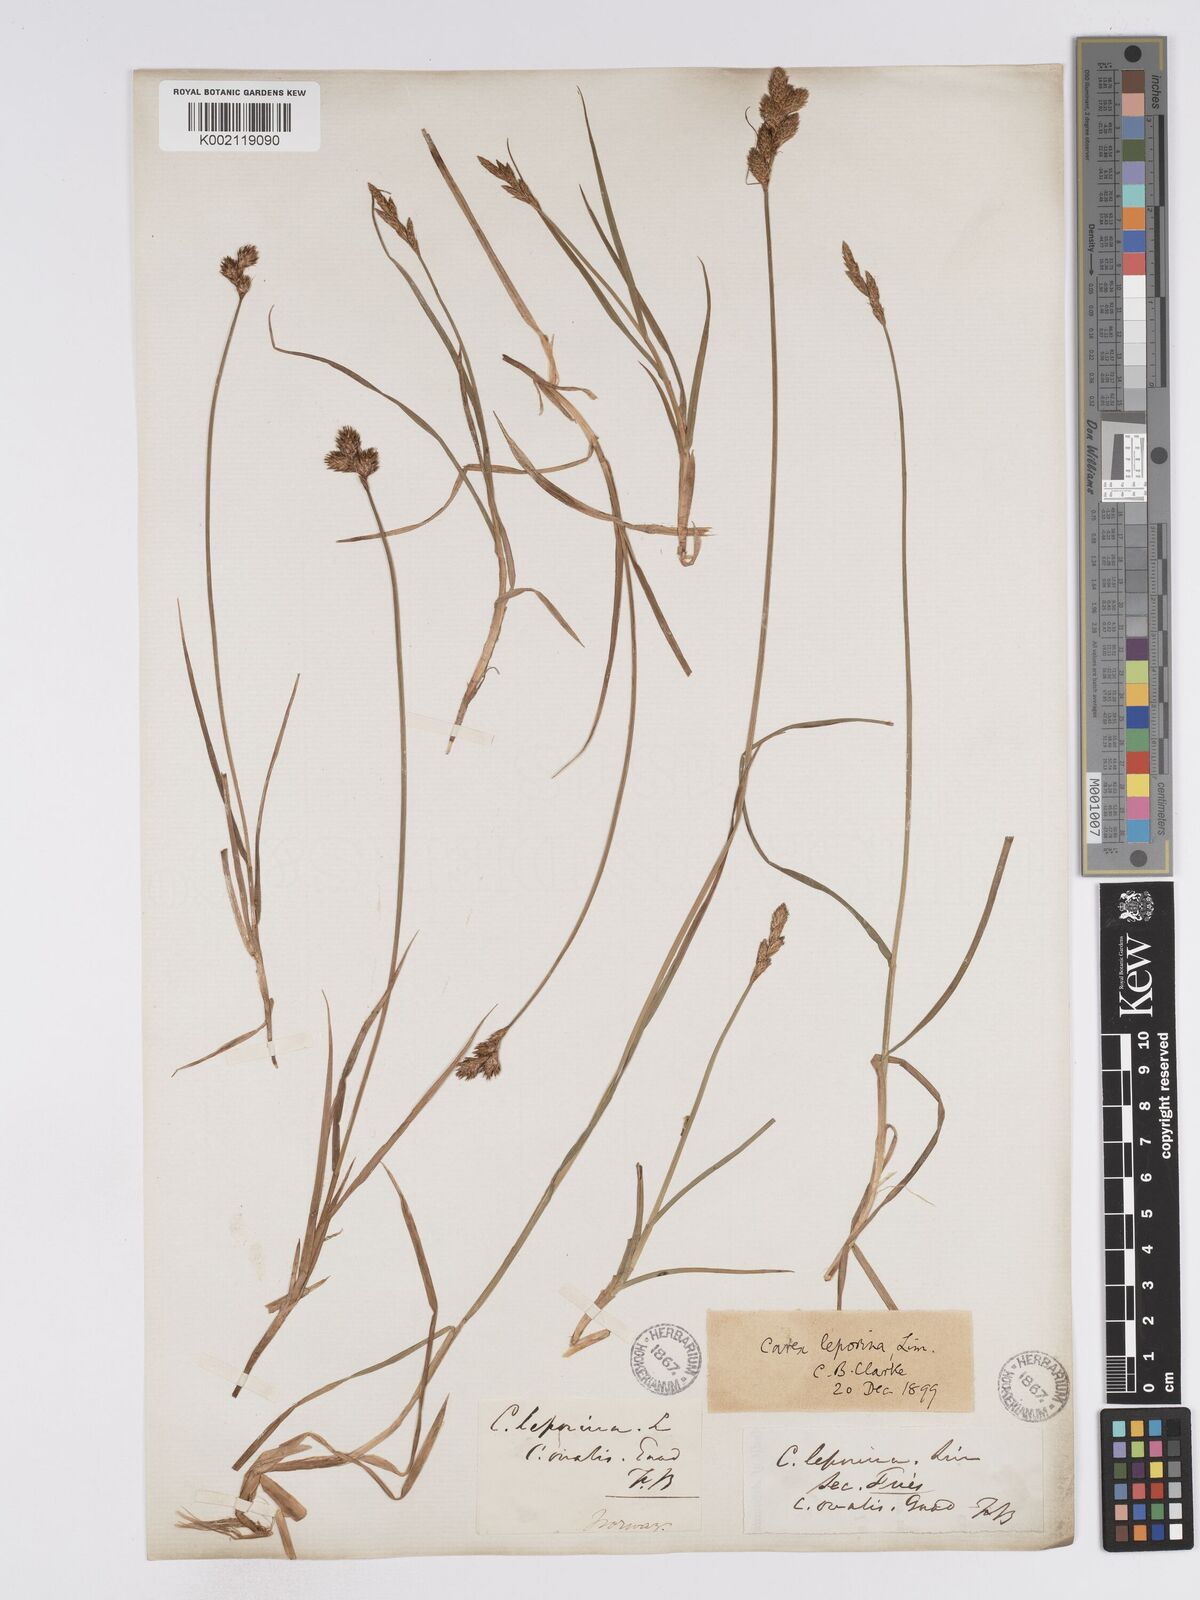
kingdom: Plantae
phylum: Tracheophyta
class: Liliopsida
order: Poales
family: Cyperaceae
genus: Carex
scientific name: Carex leporina
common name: Oval sedge
